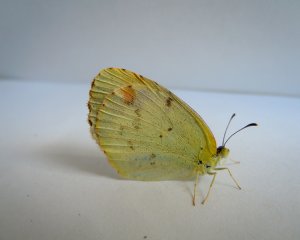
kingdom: Animalia
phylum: Arthropoda
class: Insecta
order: Lepidoptera
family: Pieridae
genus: Pyrisitia
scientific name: Pyrisitia lisa
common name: Little Yellow
